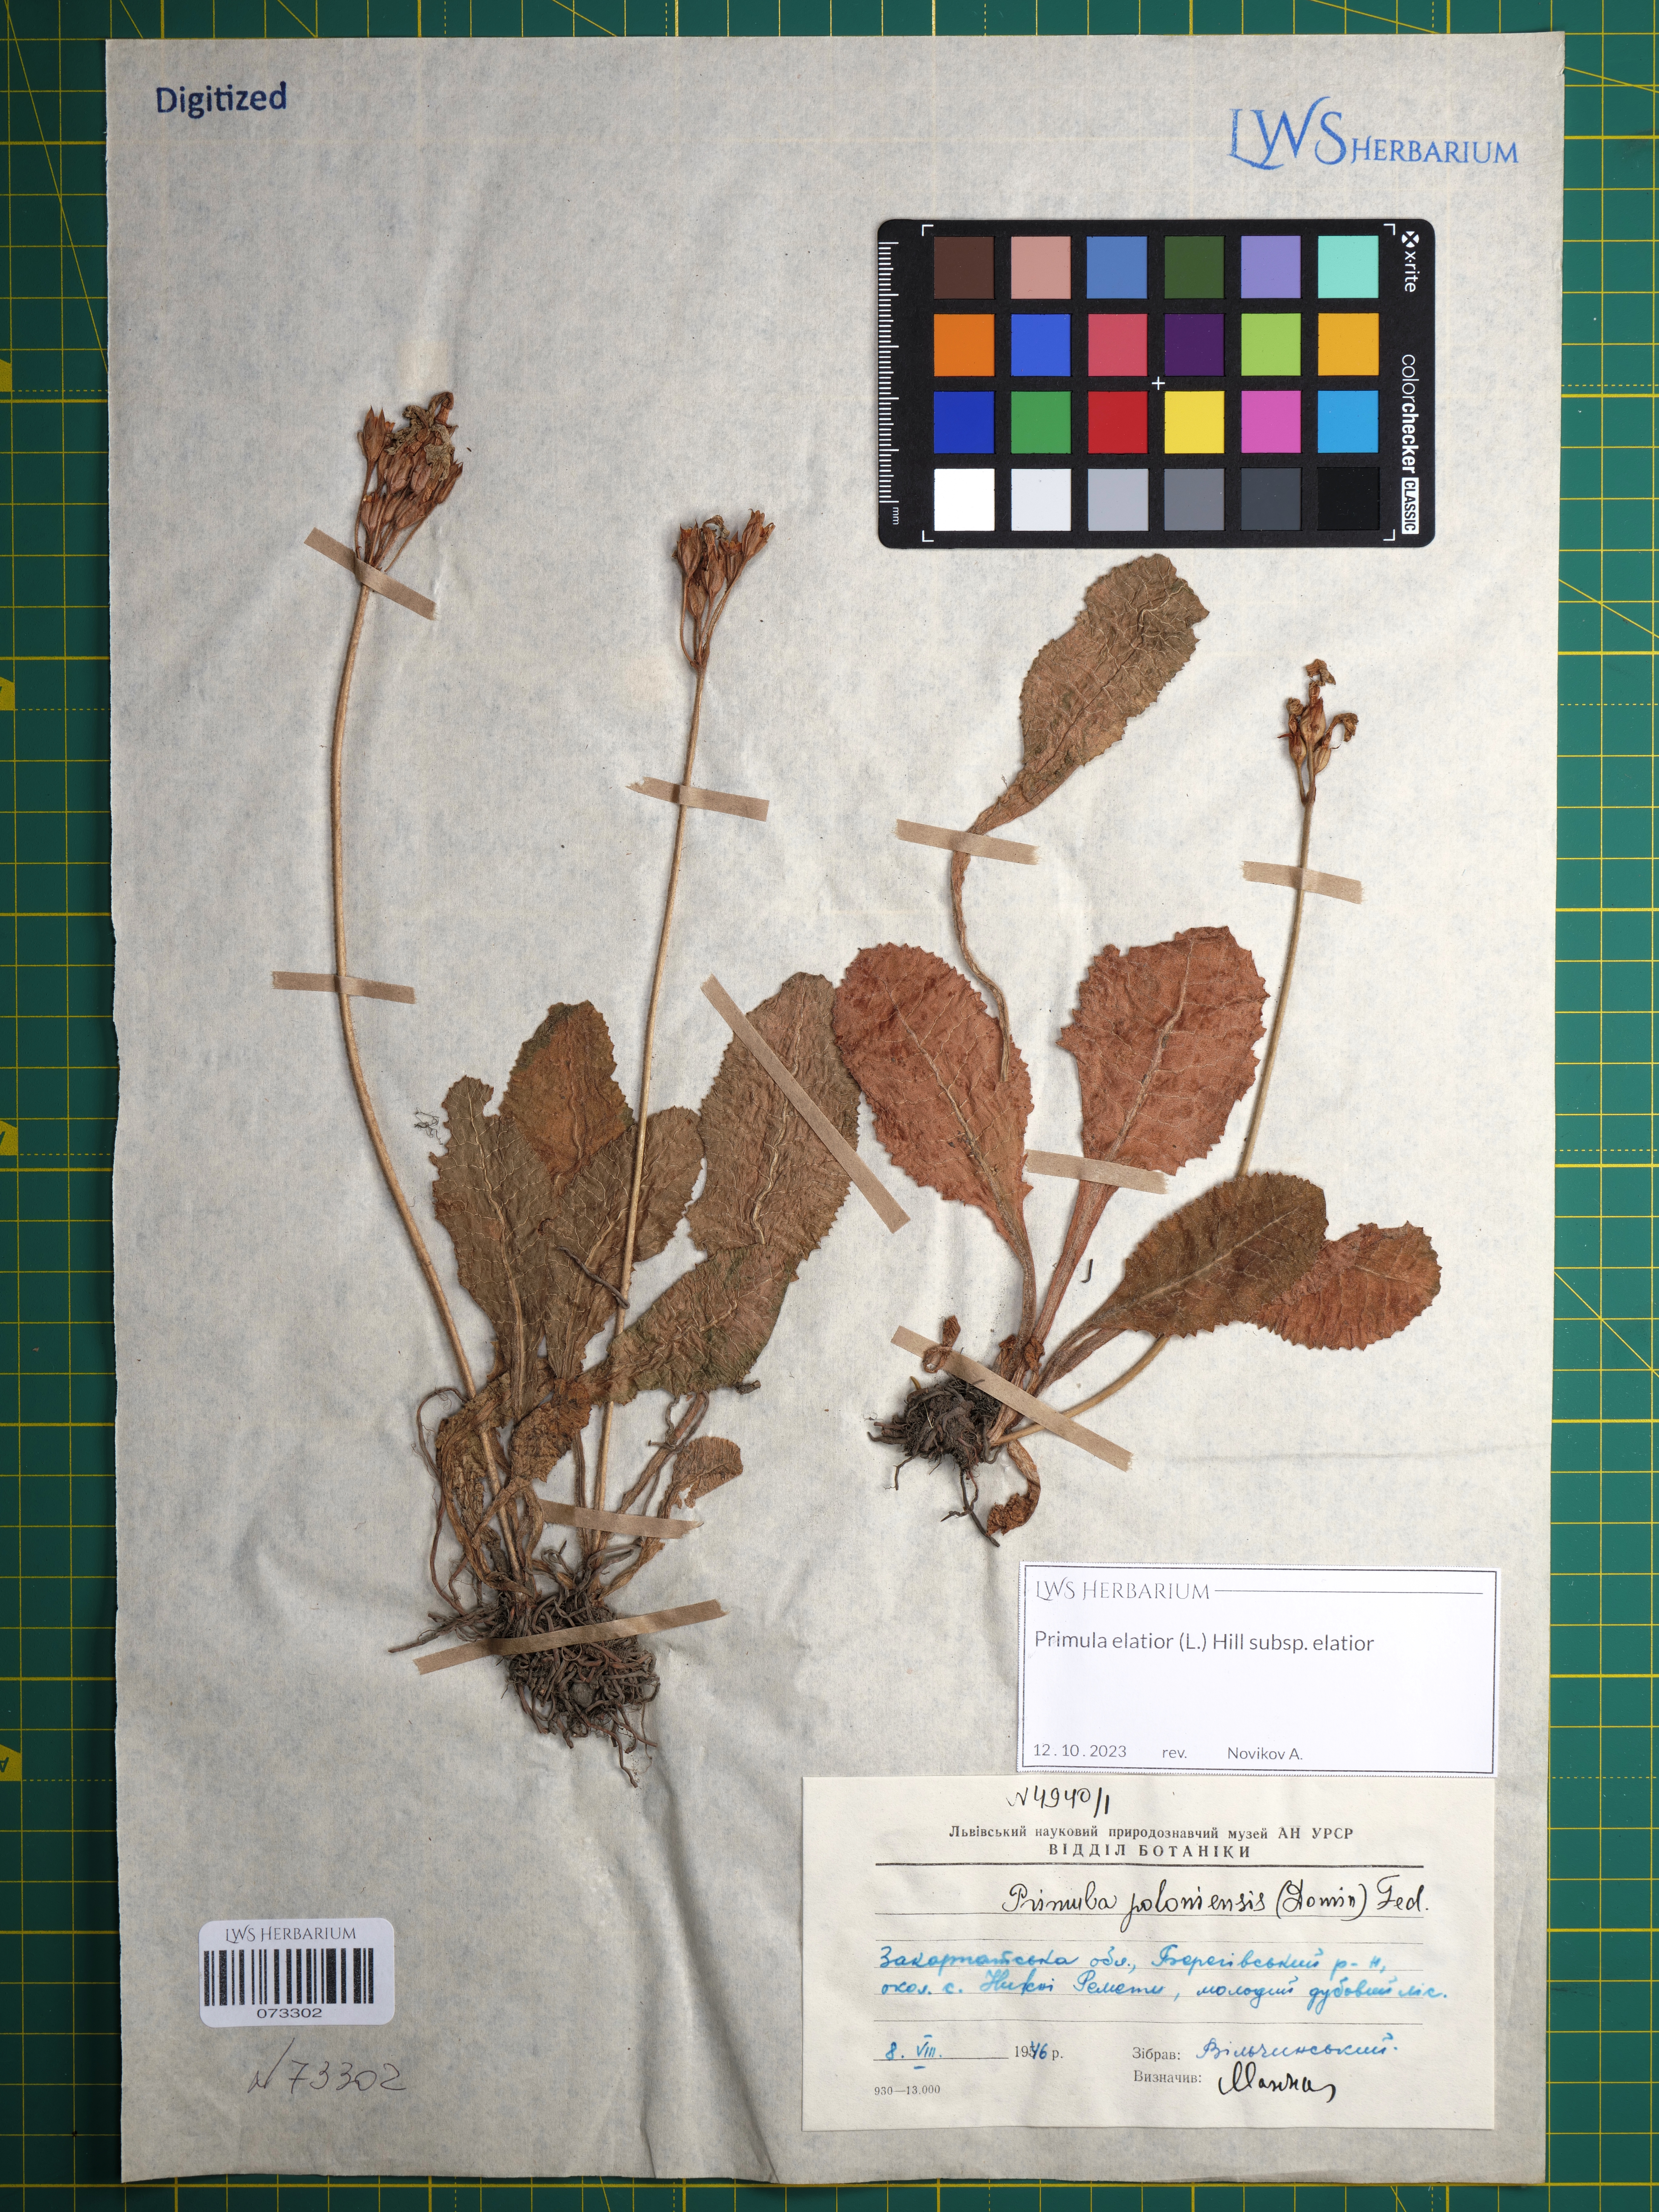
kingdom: Plantae
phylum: Tracheophyta
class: Magnoliopsida
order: Ericales
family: Primulaceae
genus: Primula
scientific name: Primula elatior
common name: Oxlip
